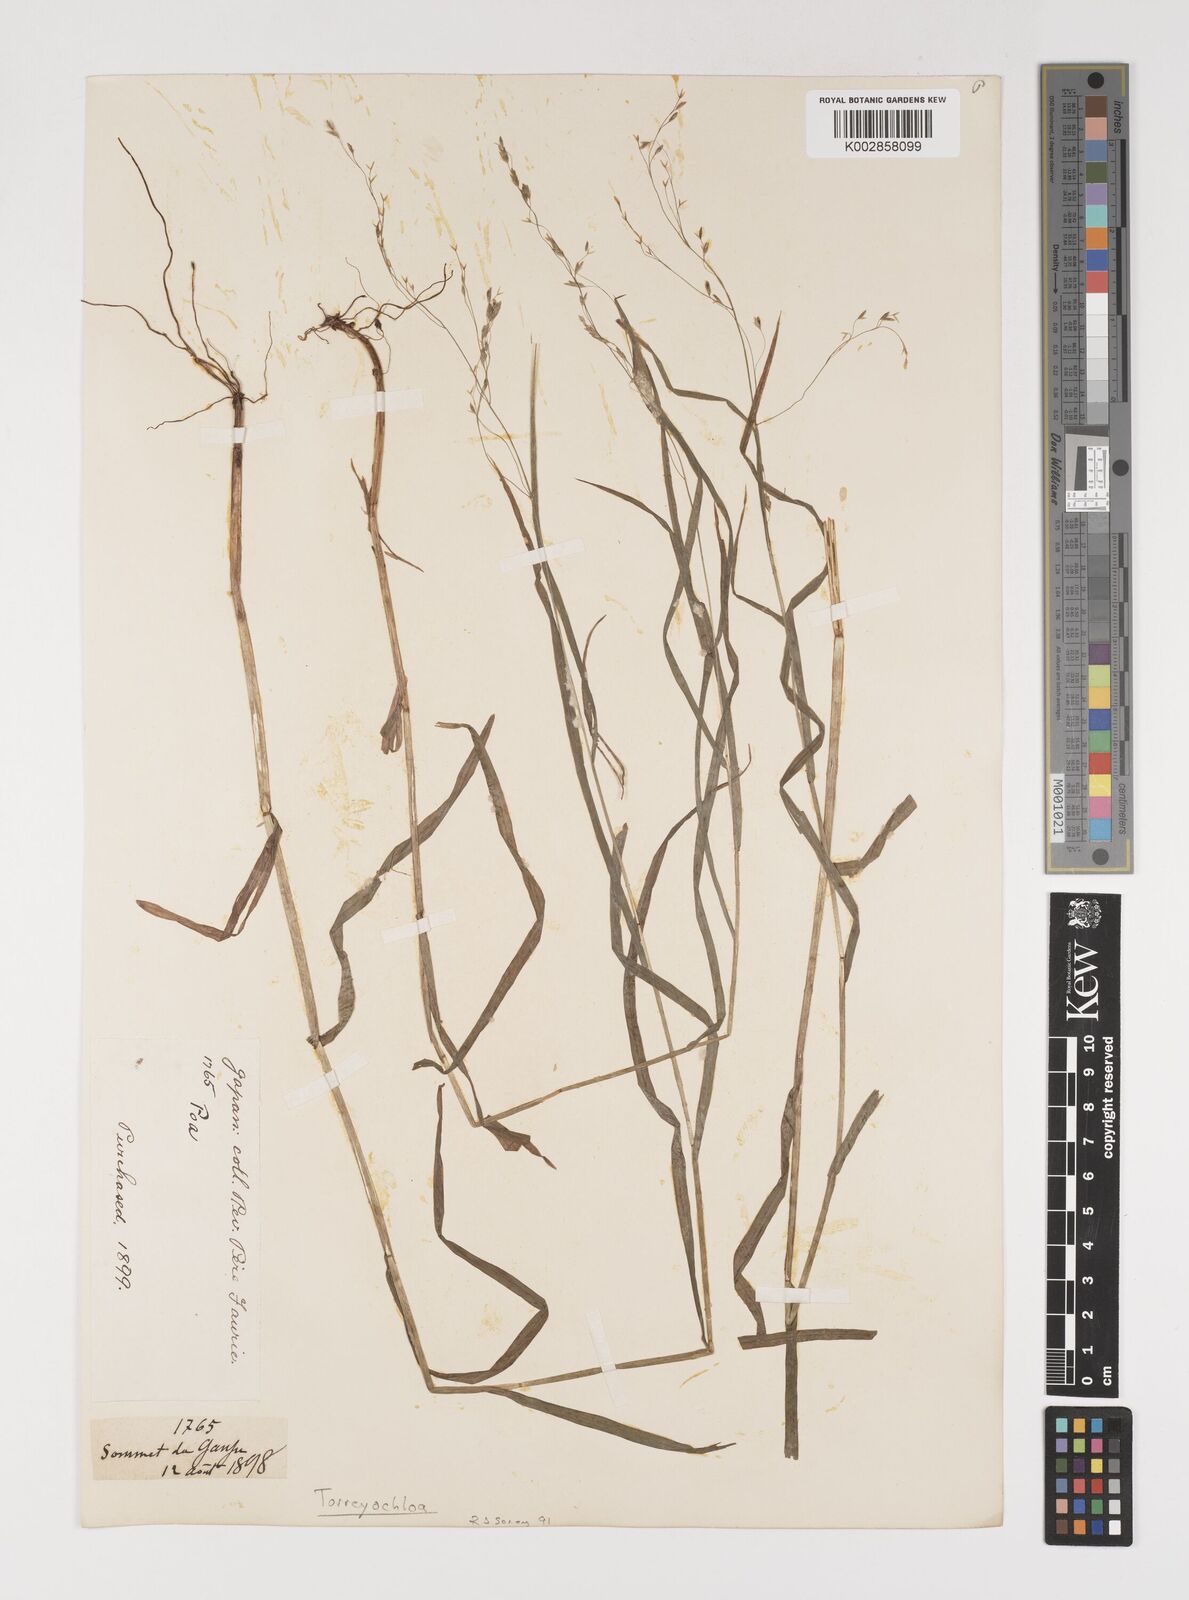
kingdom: Plantae
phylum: Tracheophyta
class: Liliopsida
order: Poales
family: Poaceae
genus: Torreyochloa
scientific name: Torreyochloa natans
